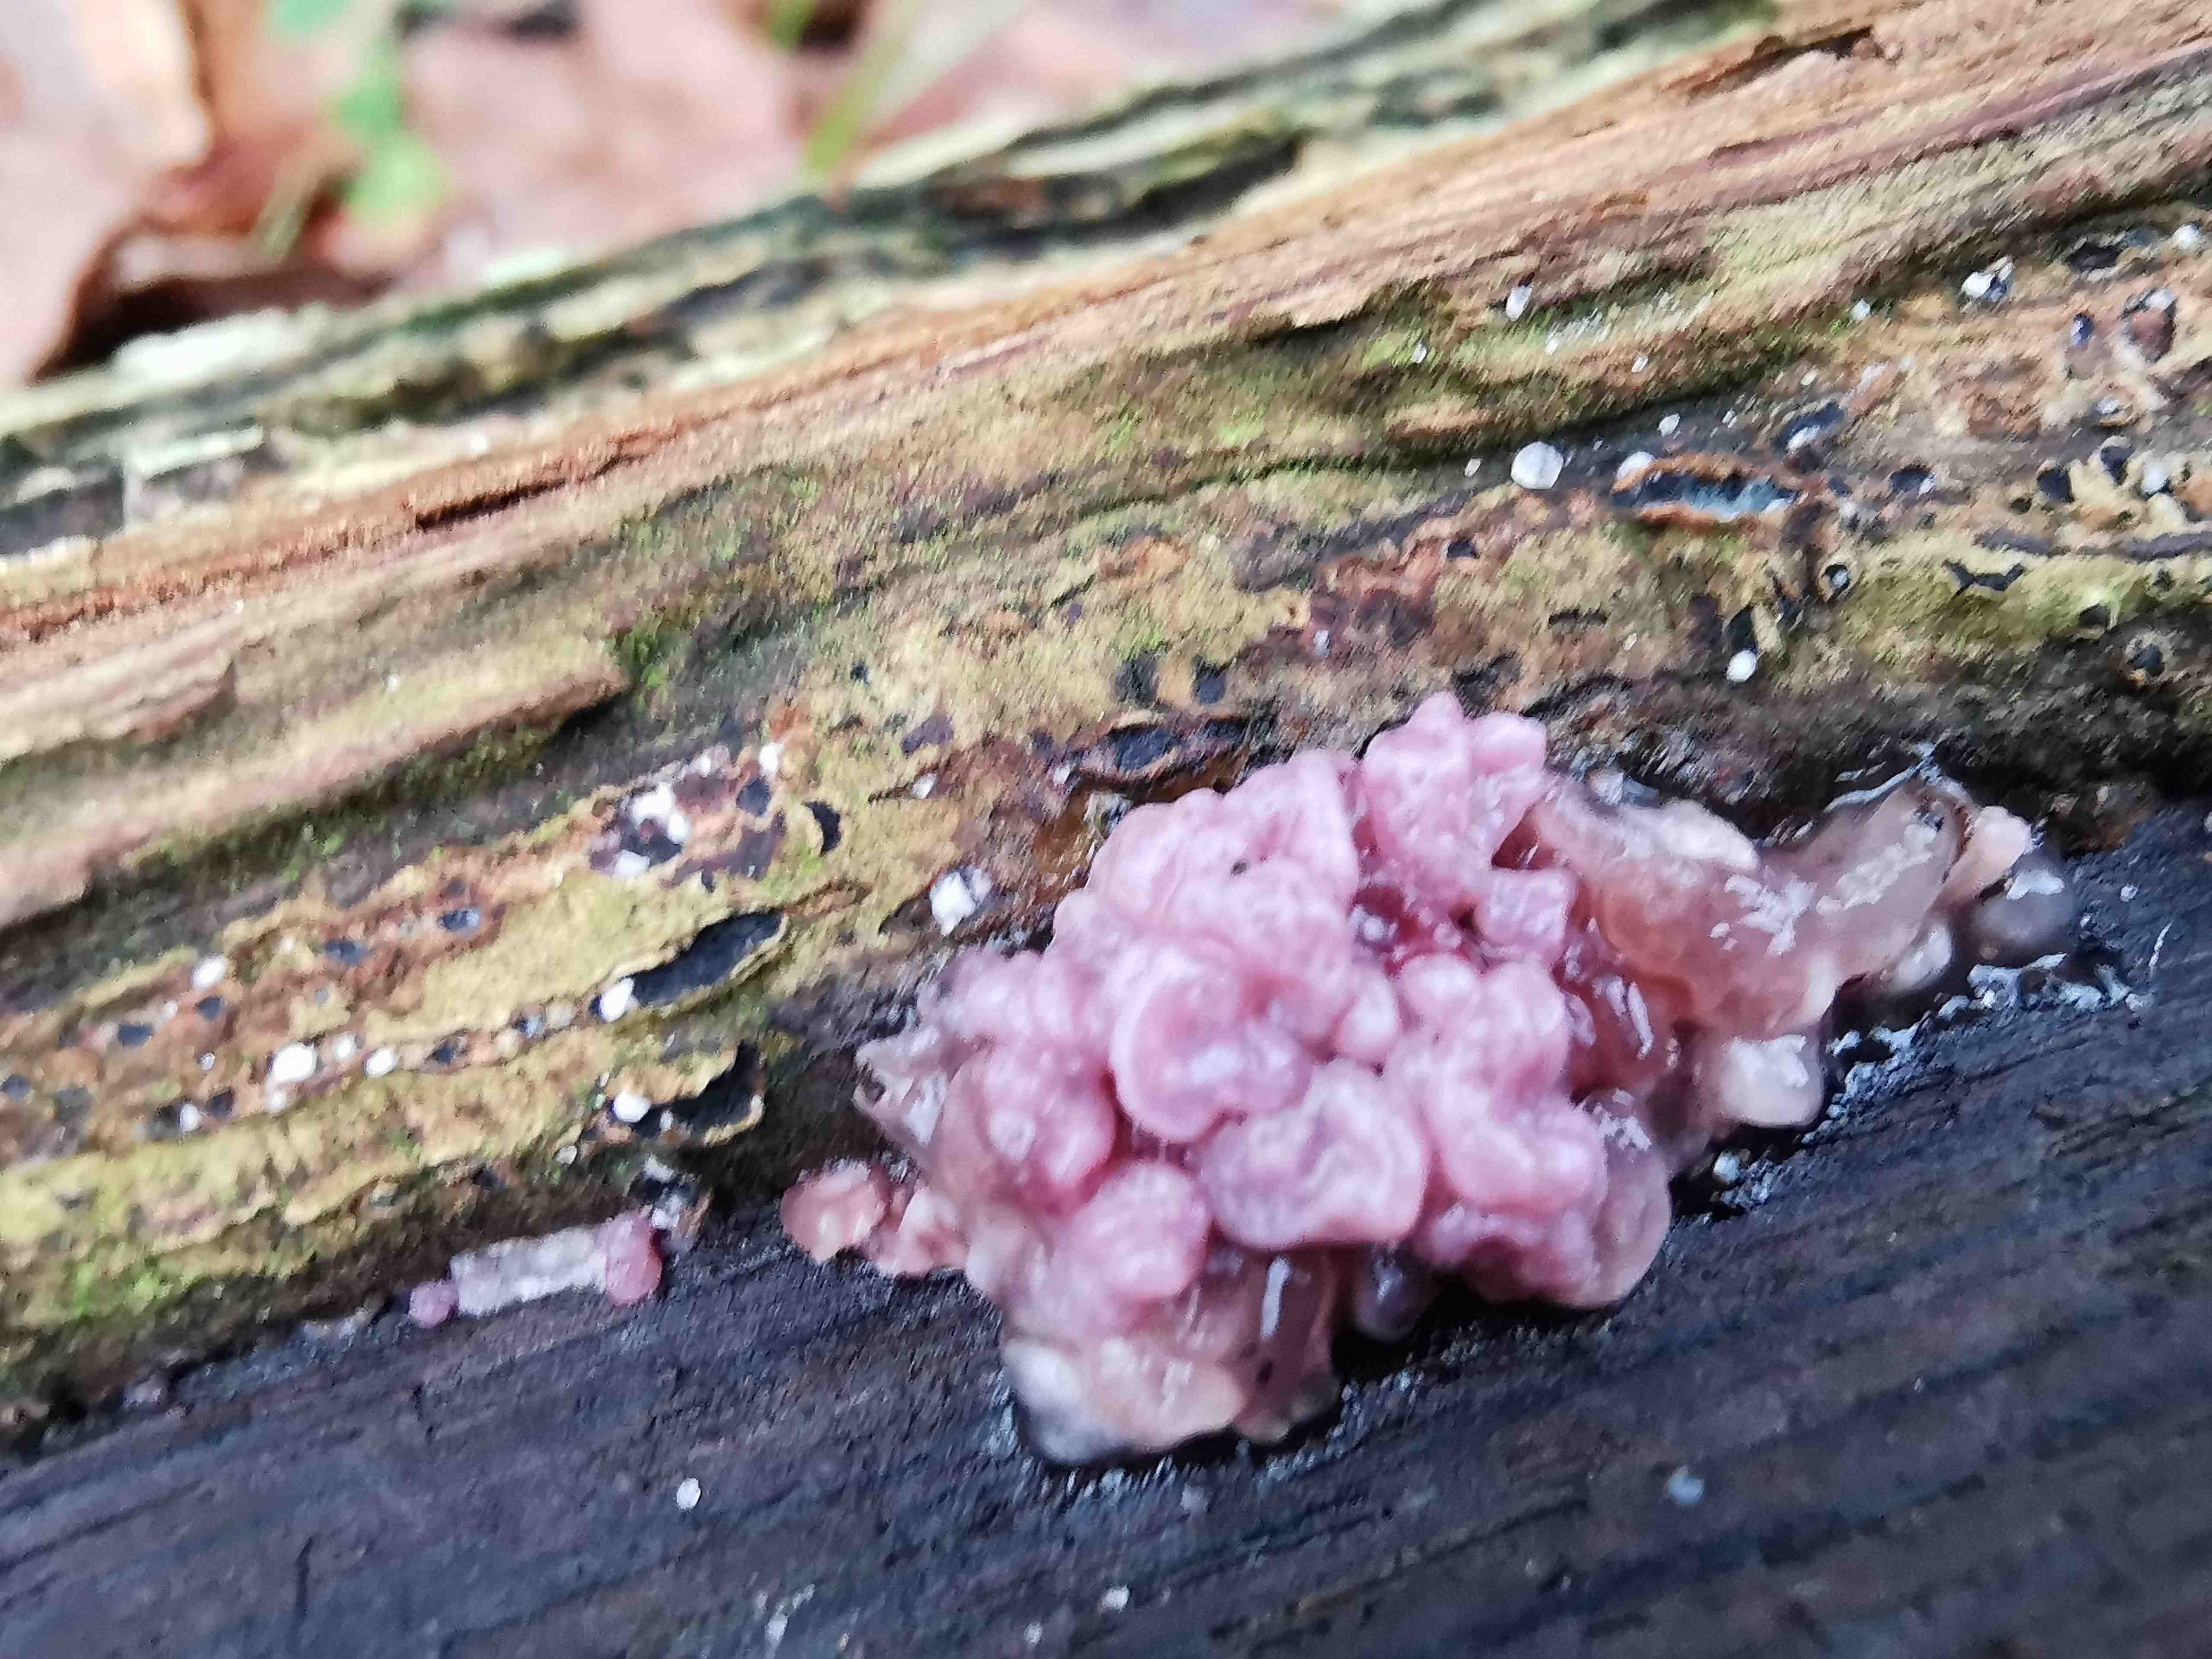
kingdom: Fungi
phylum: Ascomycota
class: Leotiomycetes
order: Helotiales
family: Gelatinodiscaceae
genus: Ascocoryne
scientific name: Ascocoryne sarcoides
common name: rødlilla sejskive
